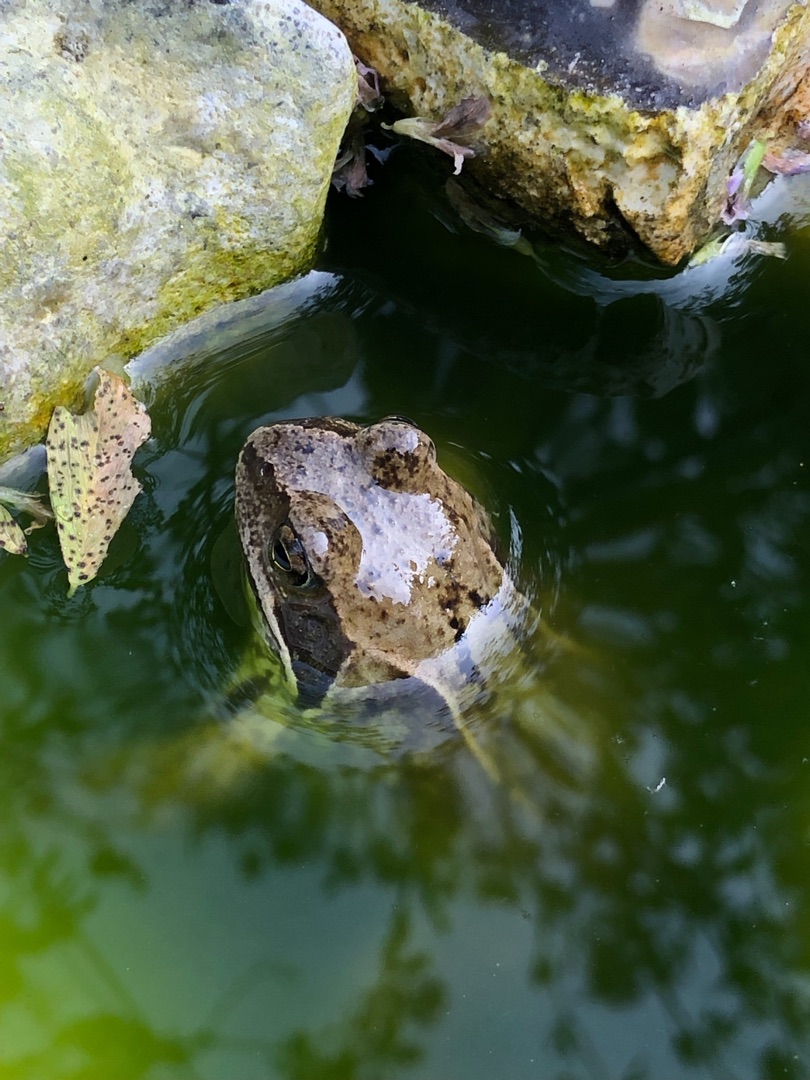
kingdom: Animalia
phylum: Chordata
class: Amphibia
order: Anura
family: Ranidae
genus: Rana
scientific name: Rana temporaria
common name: Butsnudet frø
